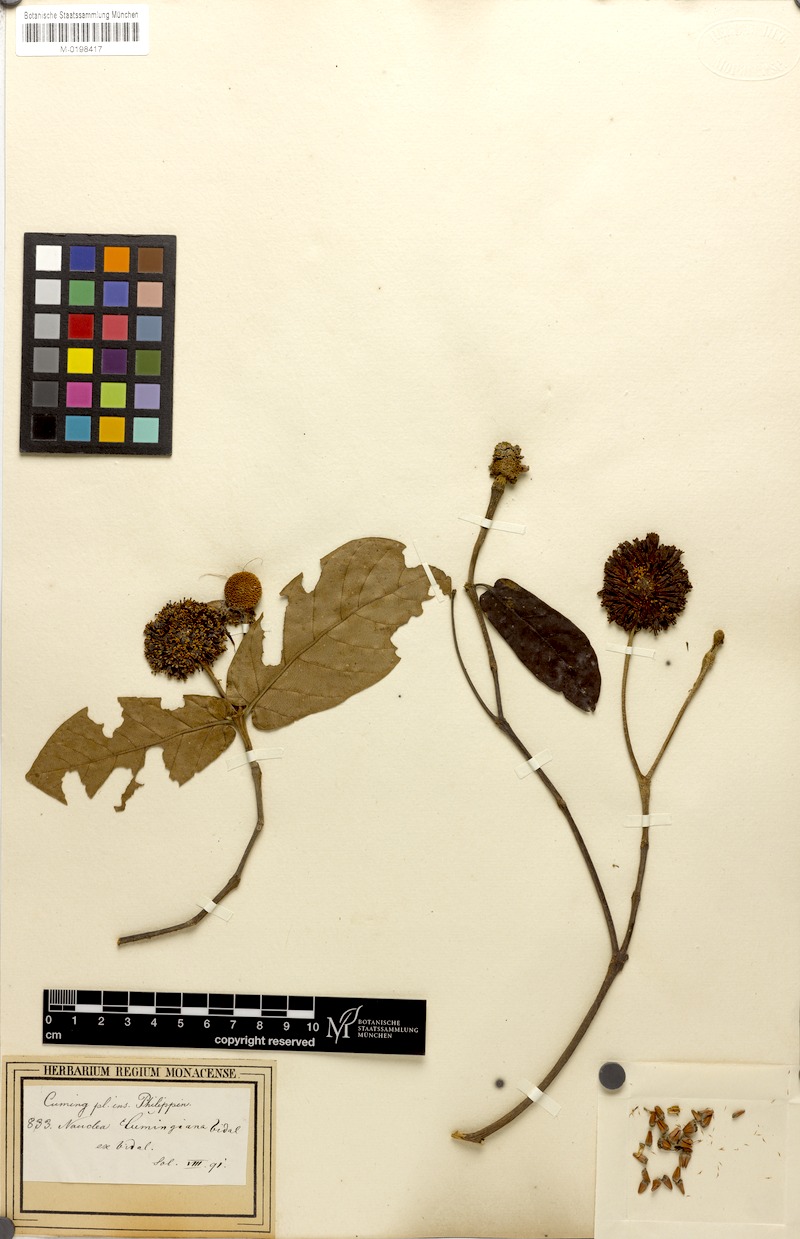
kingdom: Plantae
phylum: Tracheophyta
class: Magnoliopsida
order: Gentianales
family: Rubiaceae
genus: Neonauclea
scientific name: Neonauclea bartlingii
